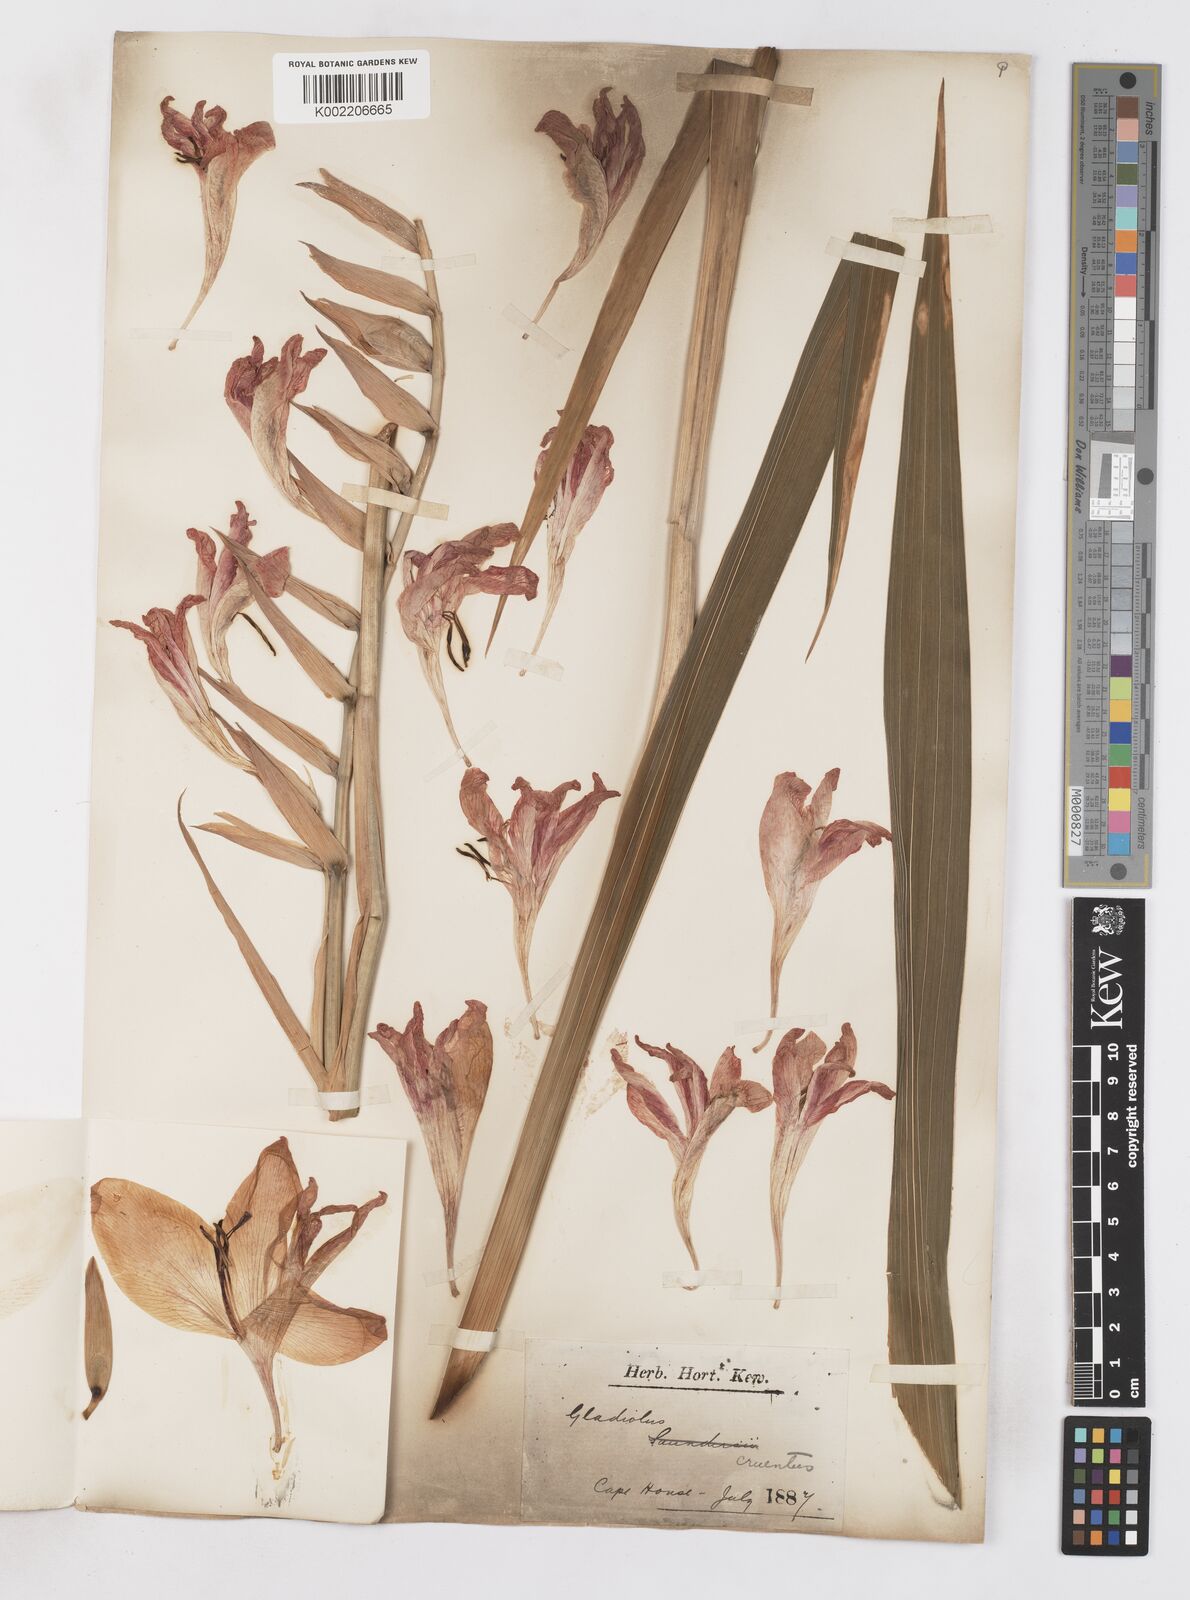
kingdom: Plantae
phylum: Tracheophyta
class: Liliopsida
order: Asparagales
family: Iridaceae
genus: Gladiolus
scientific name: Gladiolus cruentus
